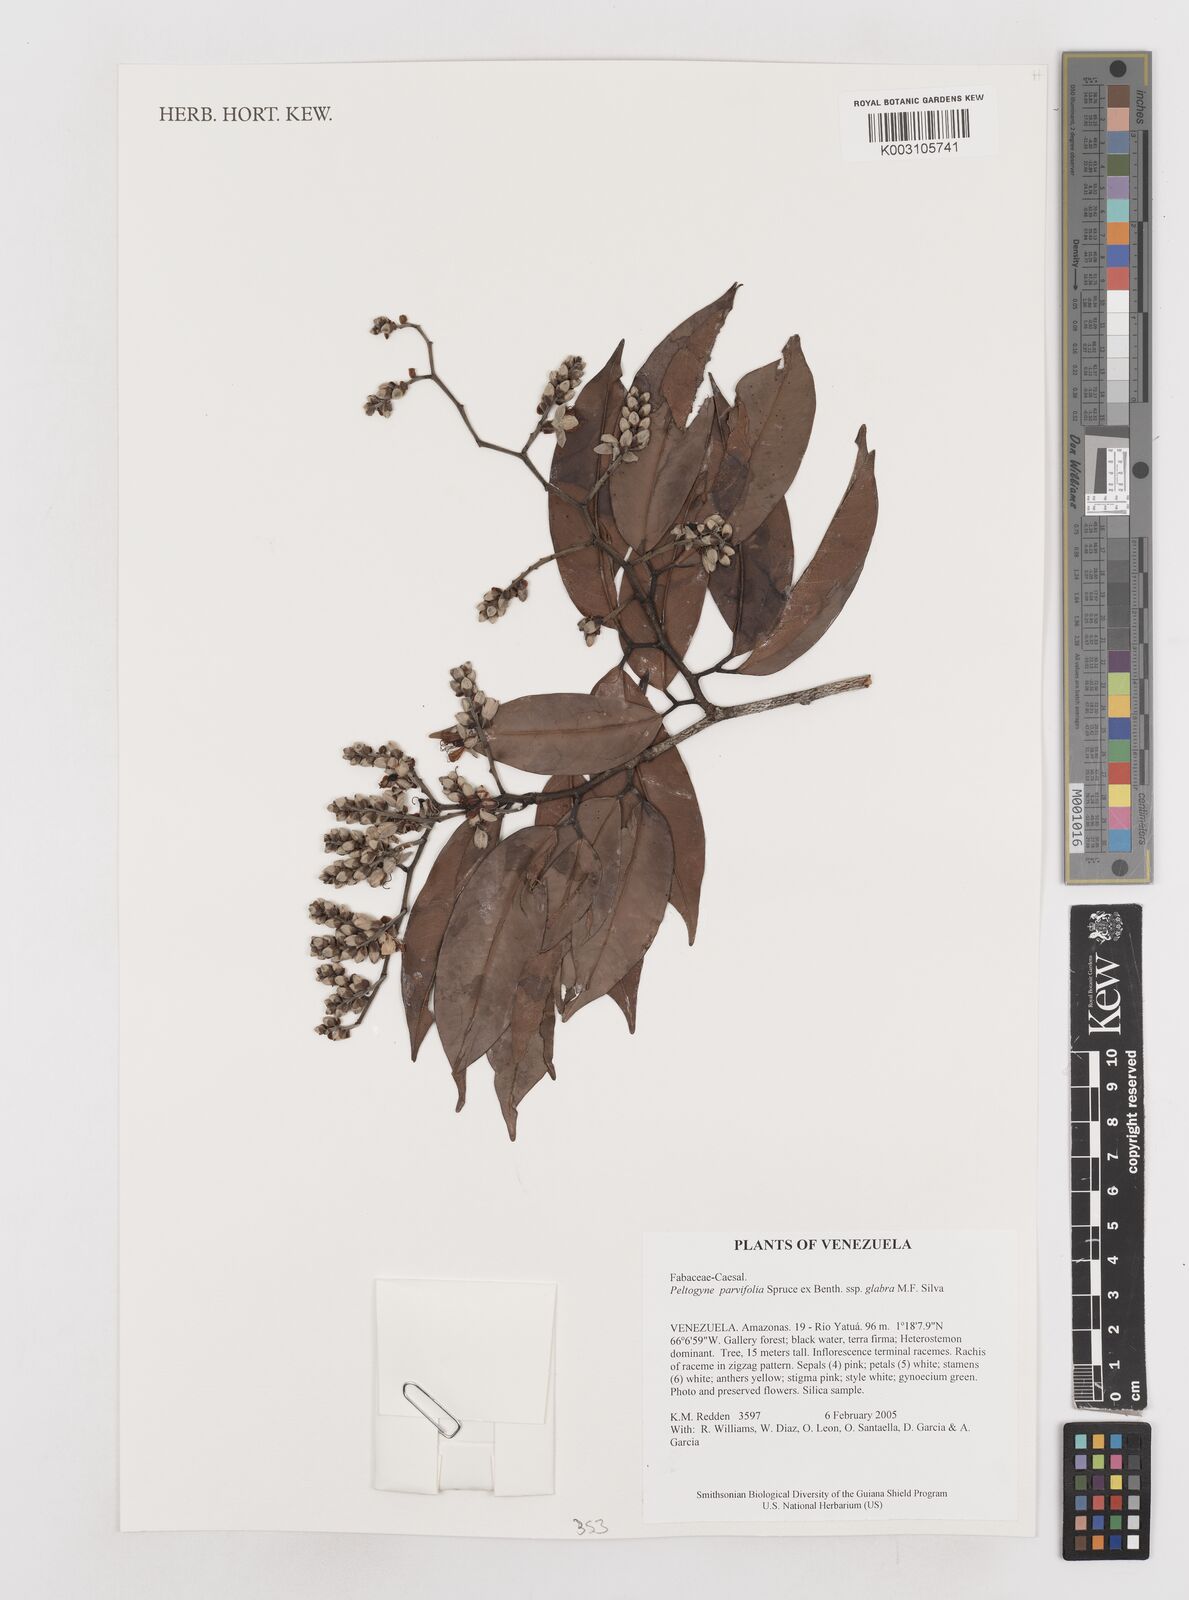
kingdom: Plantae
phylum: Tracheophyta
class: Magnoliopsida
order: Fabales
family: Fabaceae
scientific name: Fabaceae
